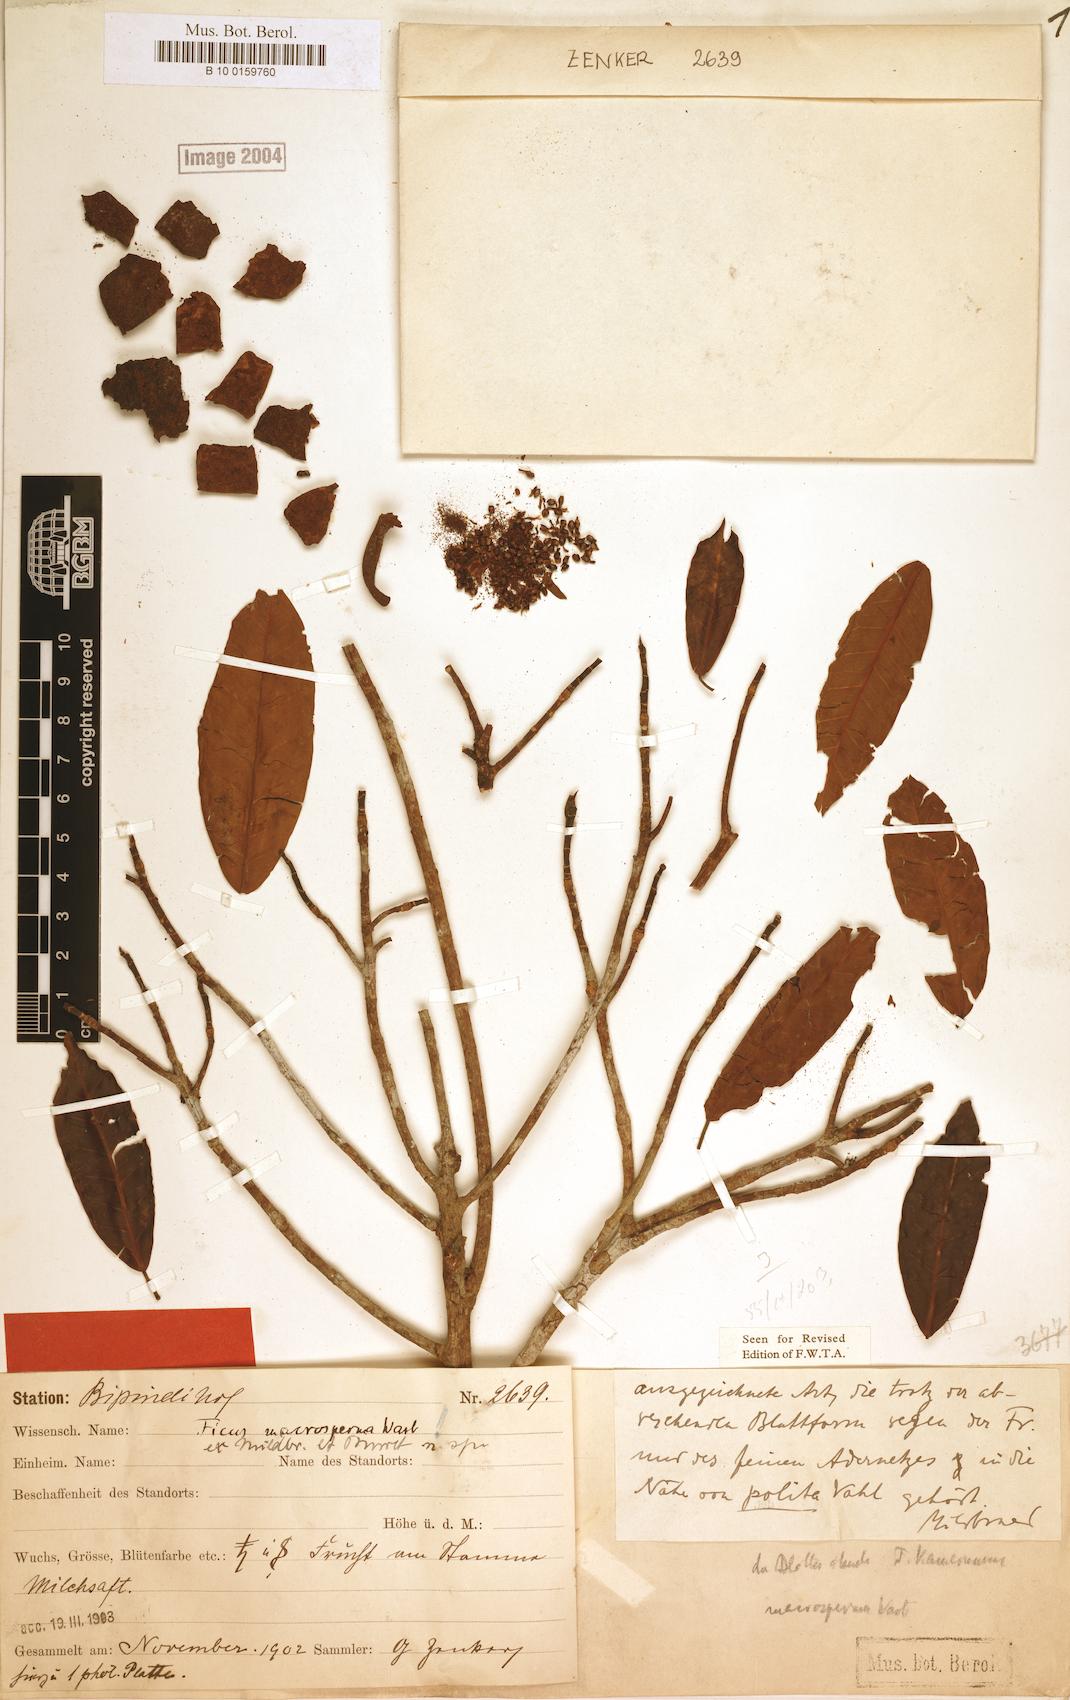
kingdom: Plantae
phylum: Tracheophyta
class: Magnoliopsida
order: Rosales
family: Moraceae
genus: Ficus
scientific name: Ficus sansibarica
